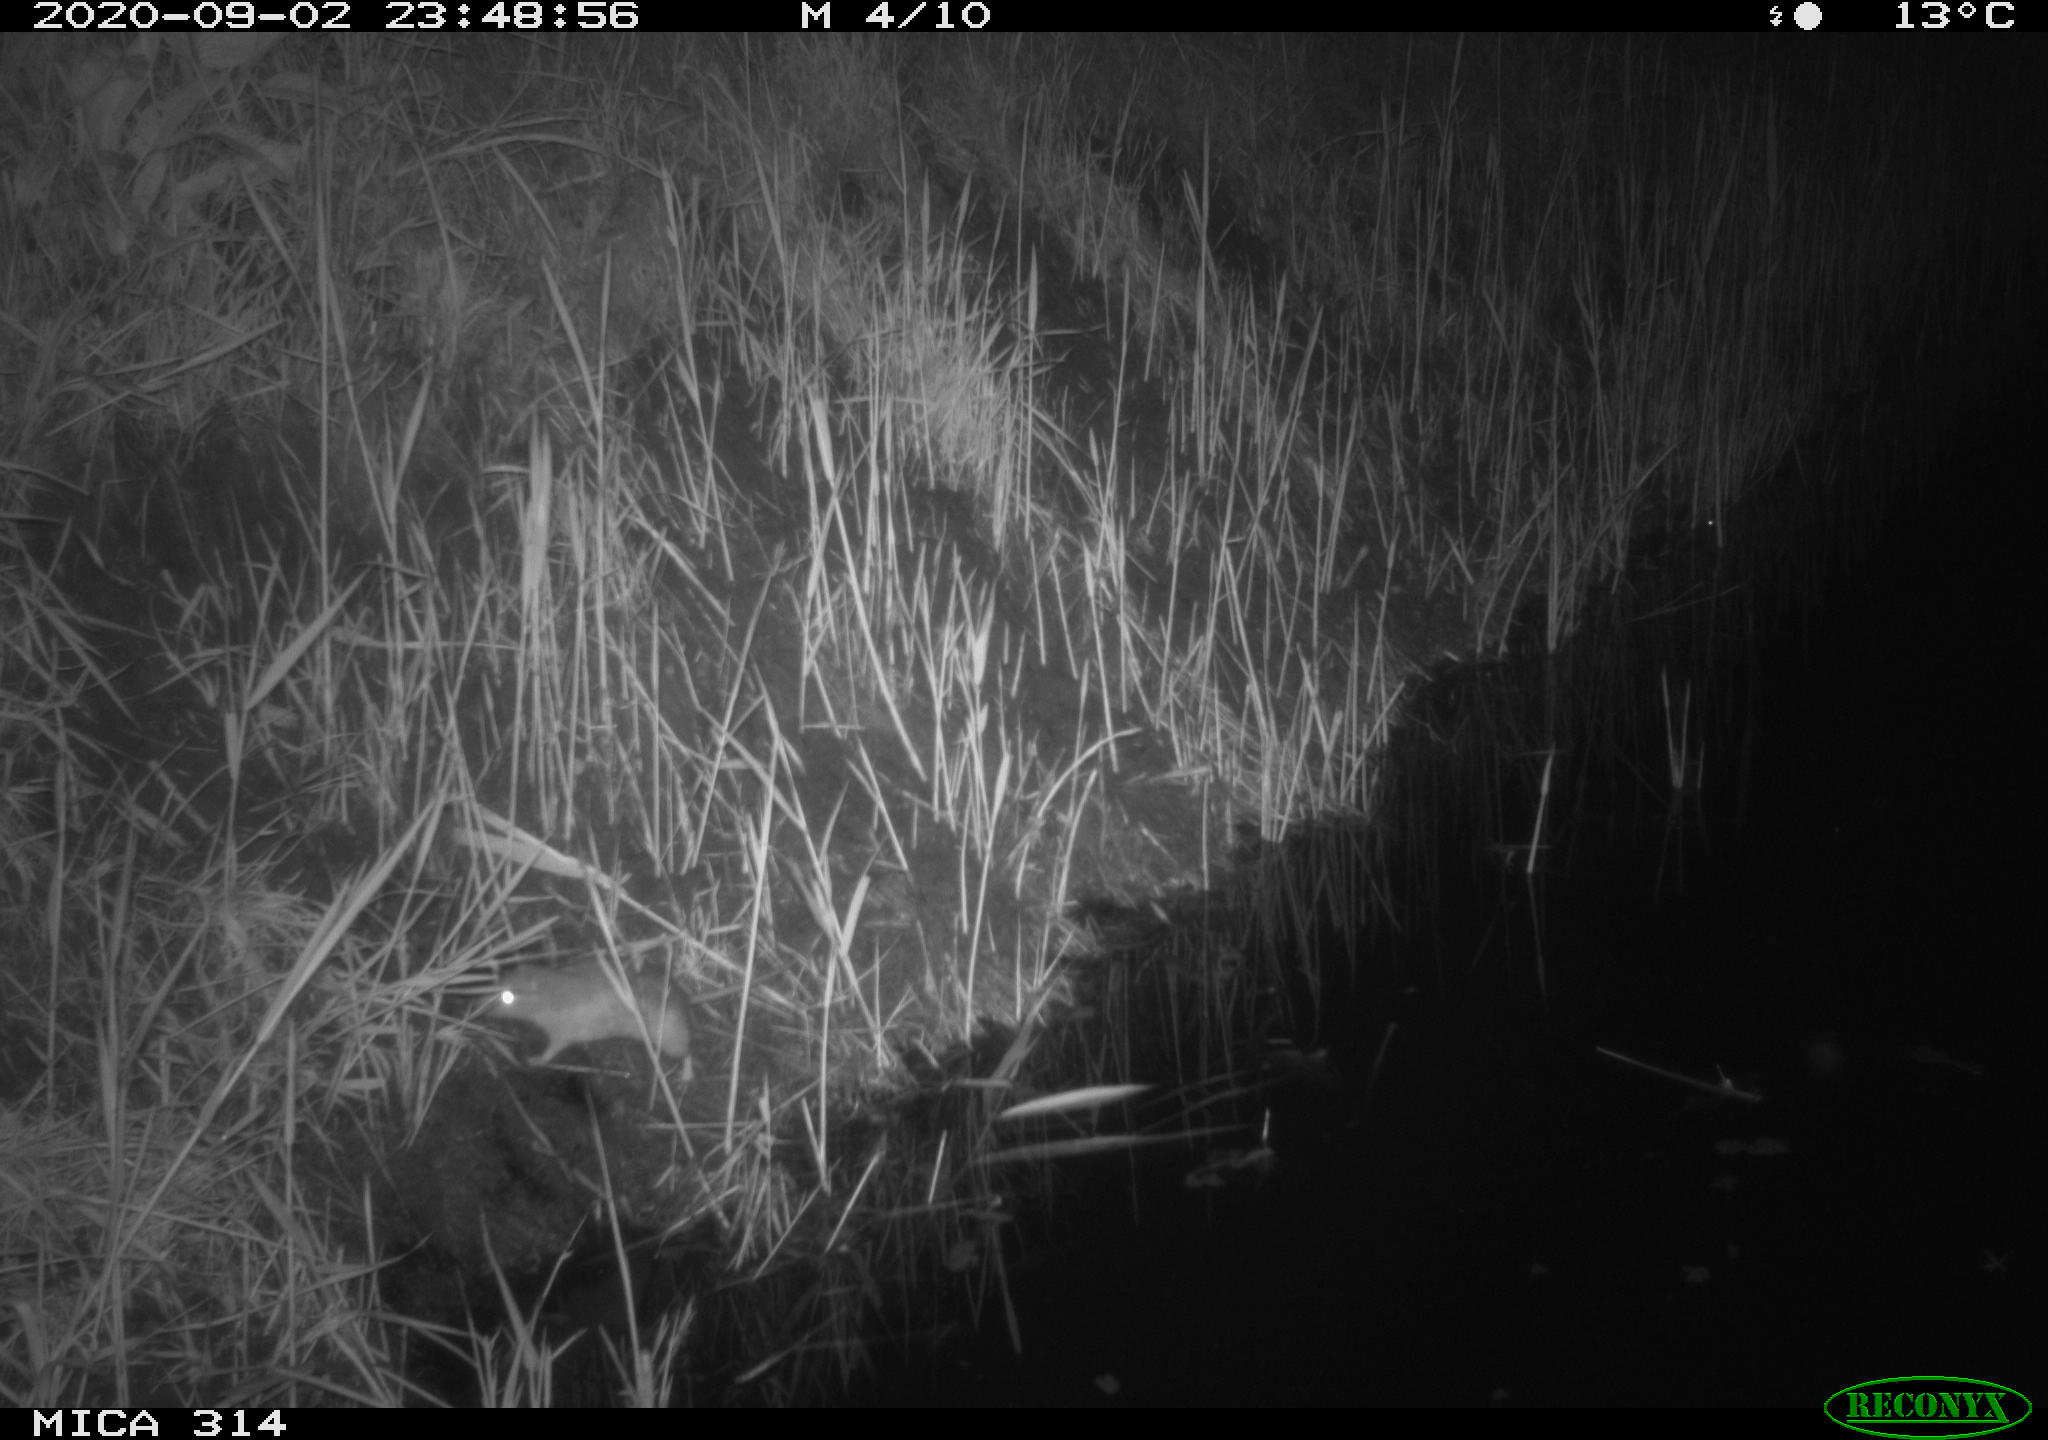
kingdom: Animalia
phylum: Chordata
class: Mammalia
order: Rodentia
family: Muridae
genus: Rattus
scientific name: Rattus norvegicus
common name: Brown rat
